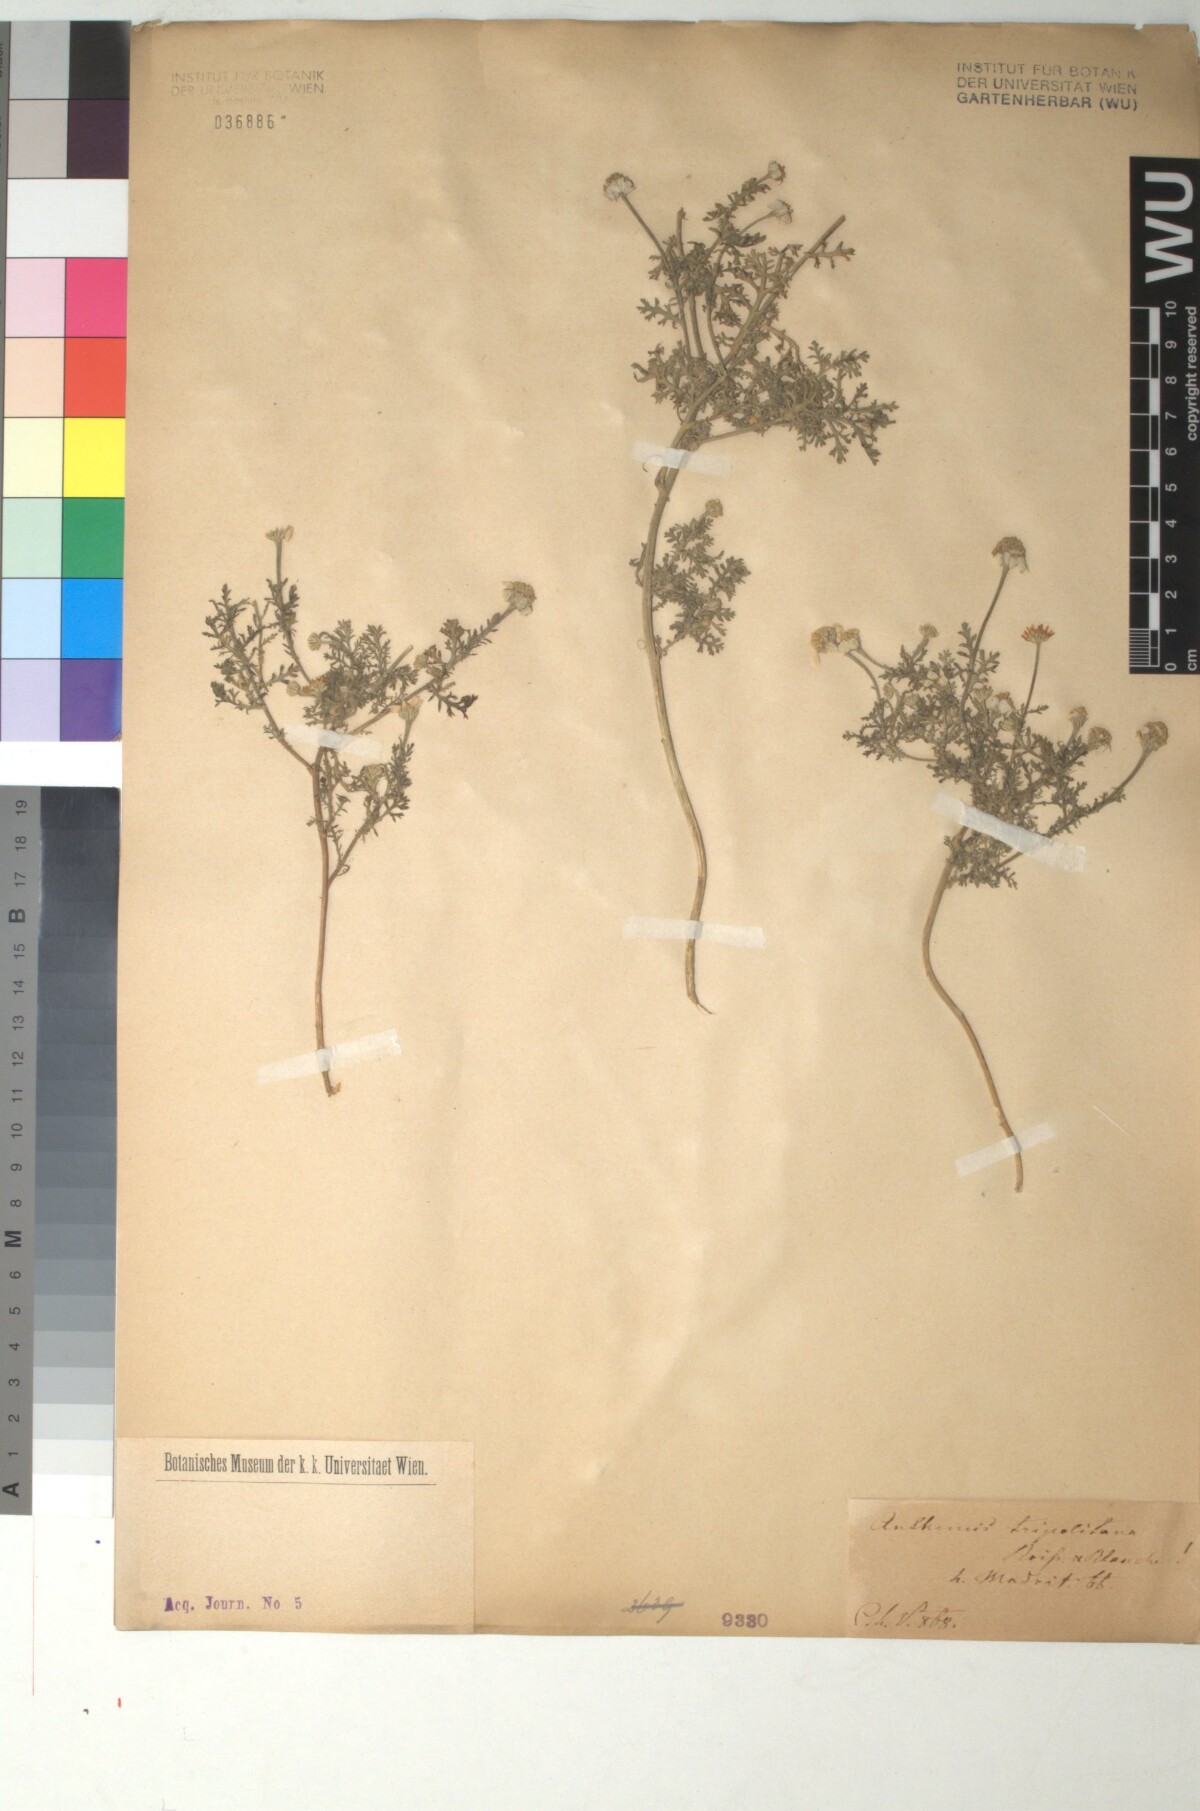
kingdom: Plantae
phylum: Tracheophyta
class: Magnoliopsida
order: Asterales
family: Asteraceae
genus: Anthemis
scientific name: Anthemis tripolitana
